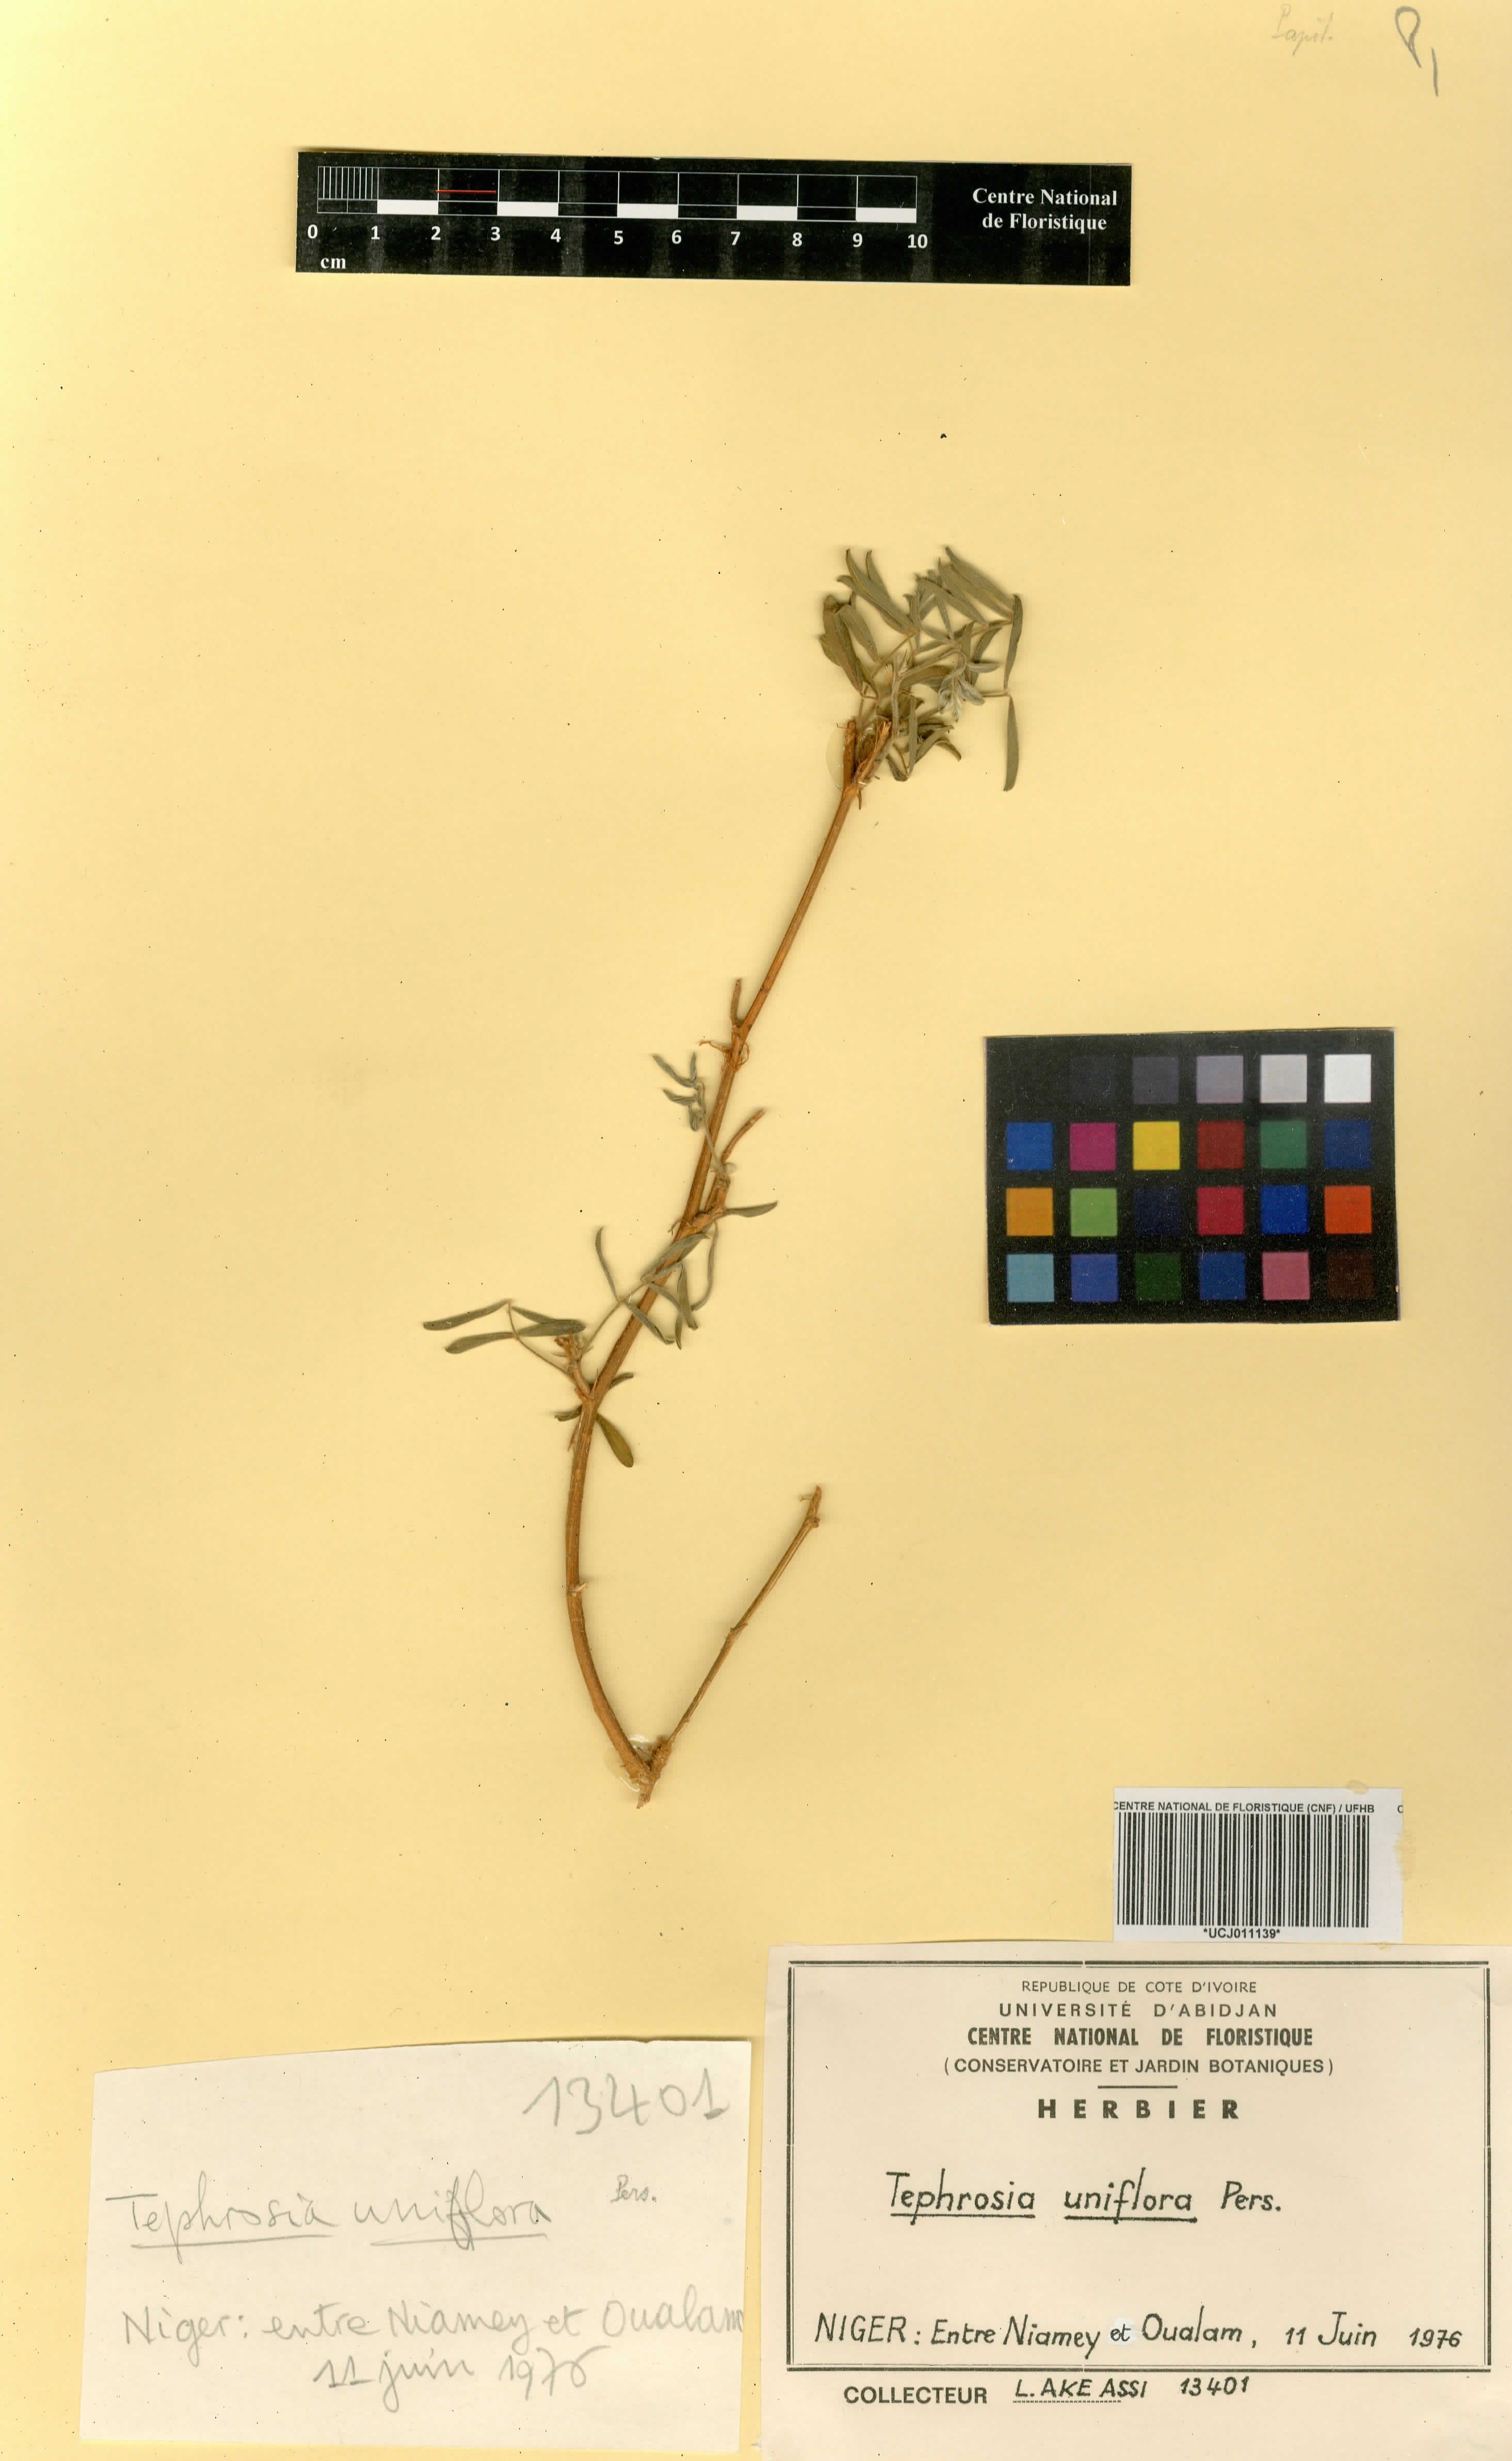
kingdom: Plantae
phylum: Tracheophyta
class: Magnoliopsida
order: Fabales
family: Fabaceae
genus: Tephrosia
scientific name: Tephrosia uniflora
